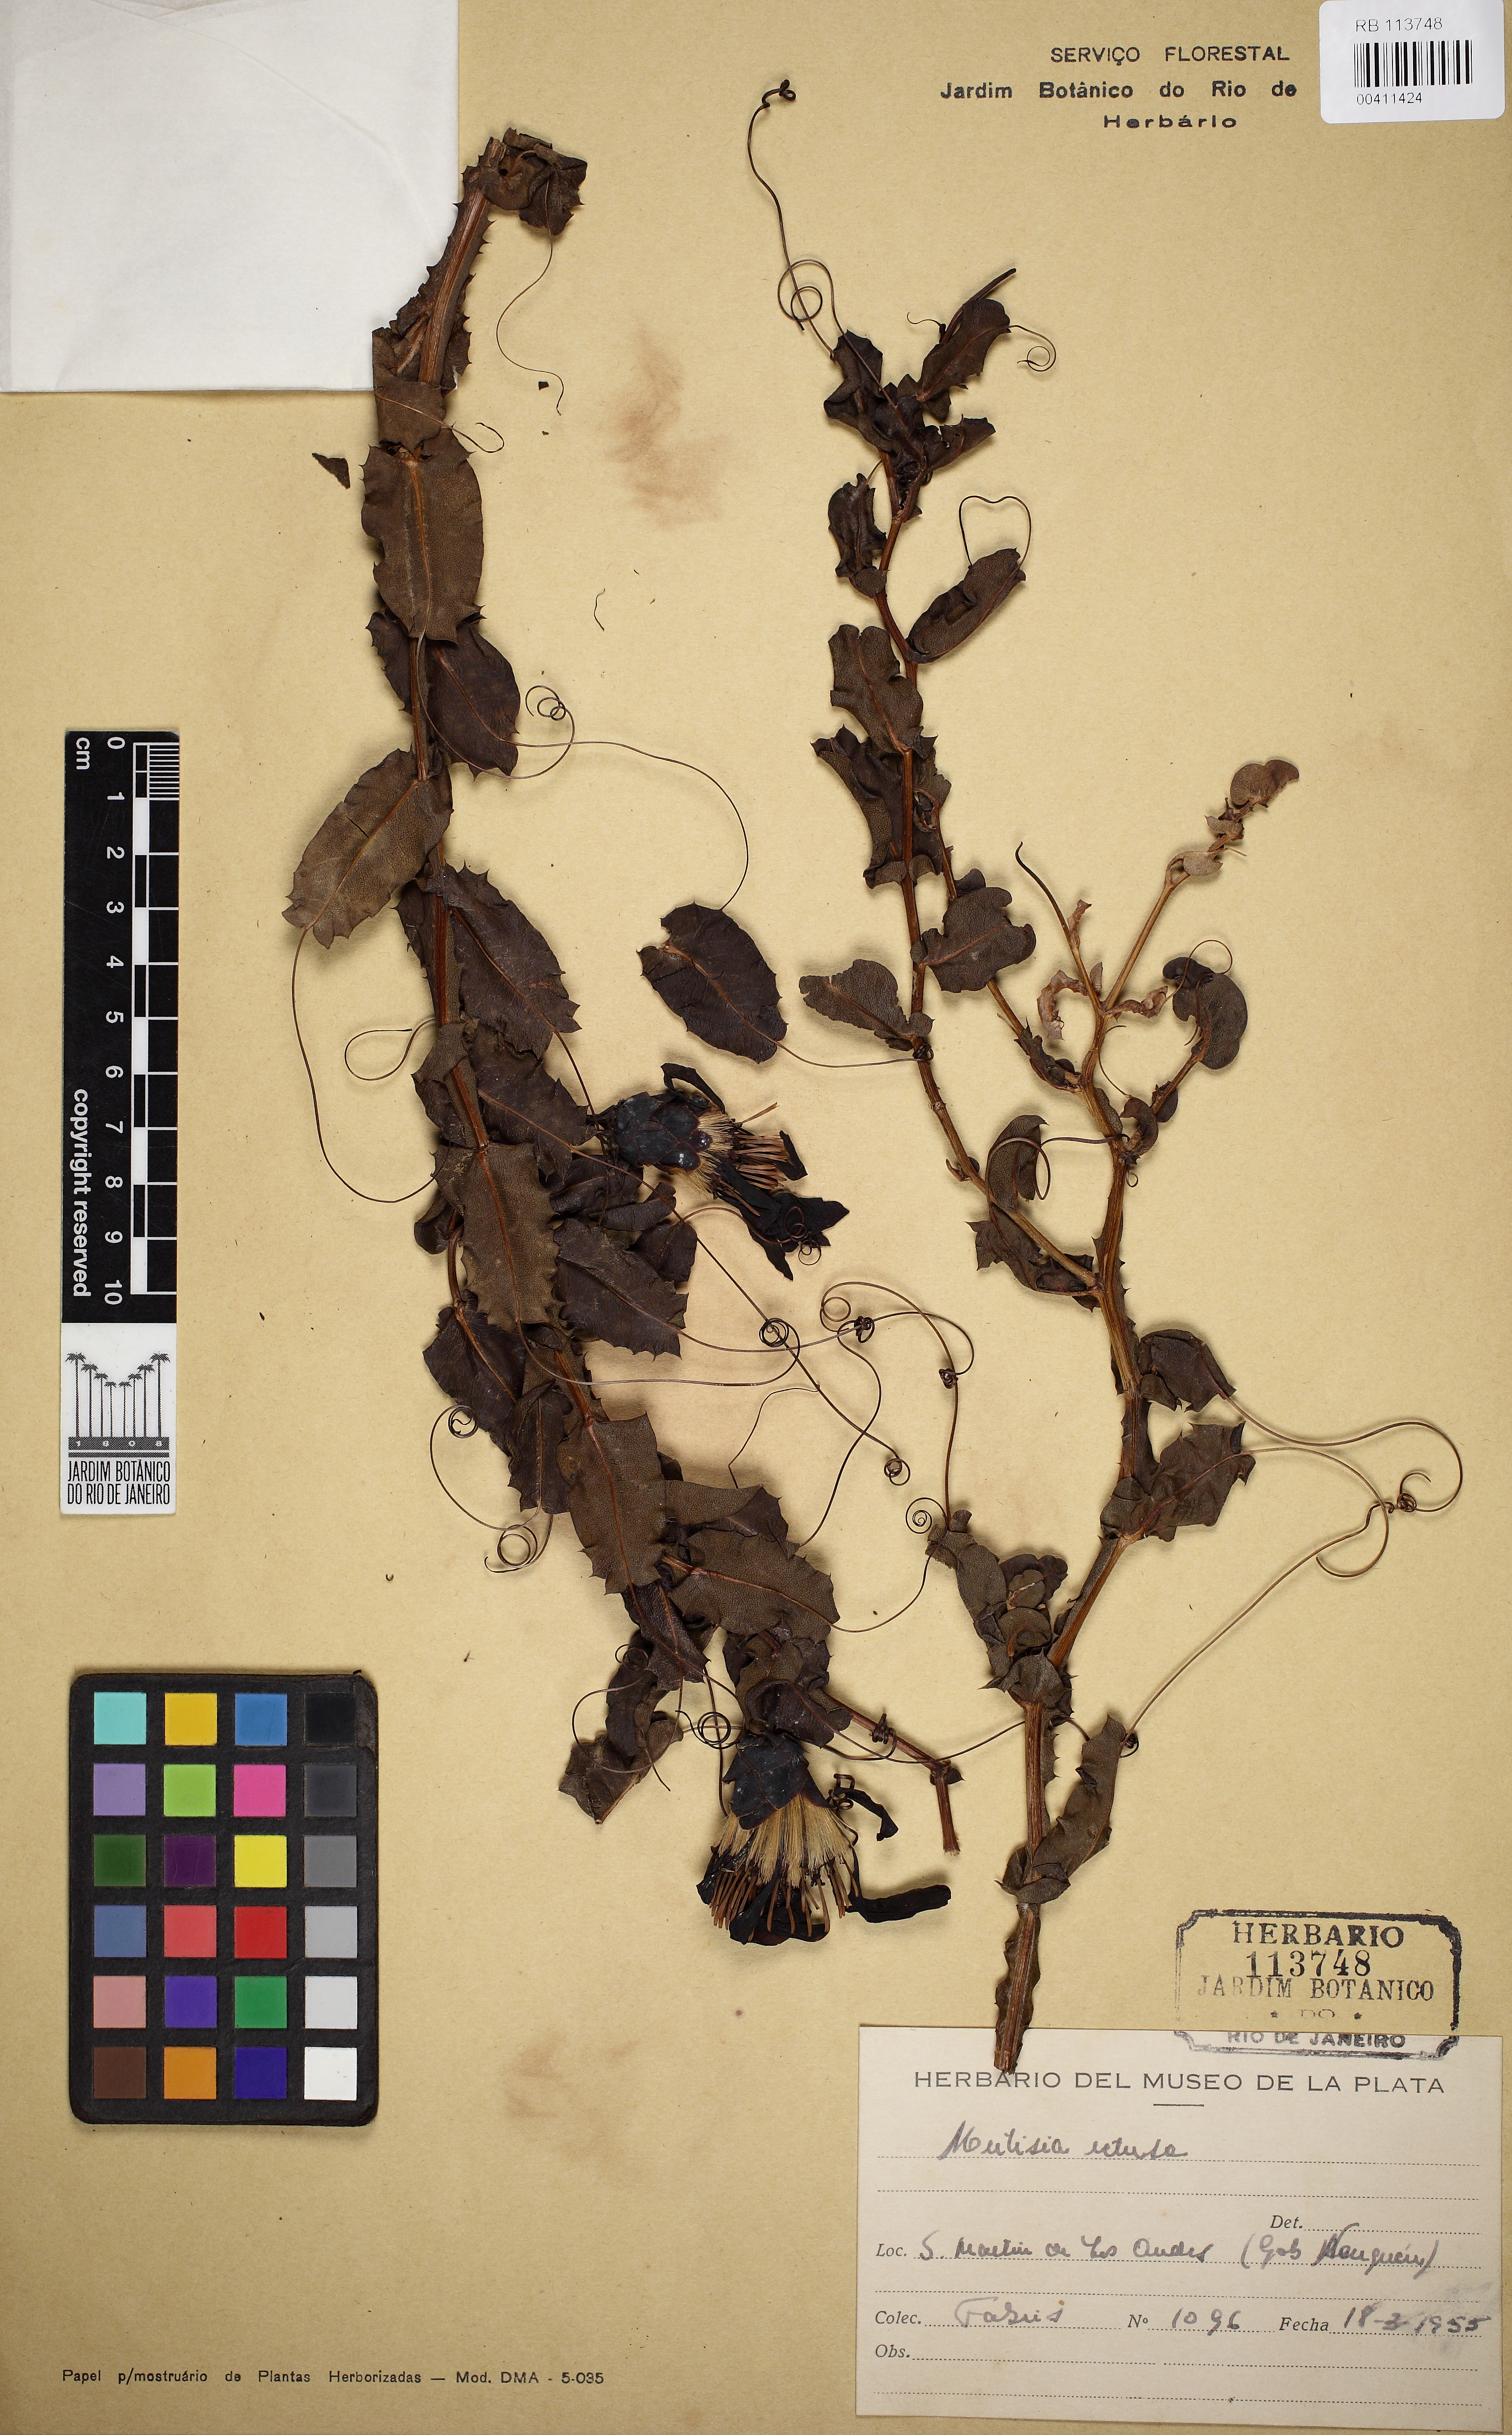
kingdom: Plantae
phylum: Tracheophyta
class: Magnoliopsida
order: Asterales
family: Asteraceae
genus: Mutisia
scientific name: Mutisia spinosa
